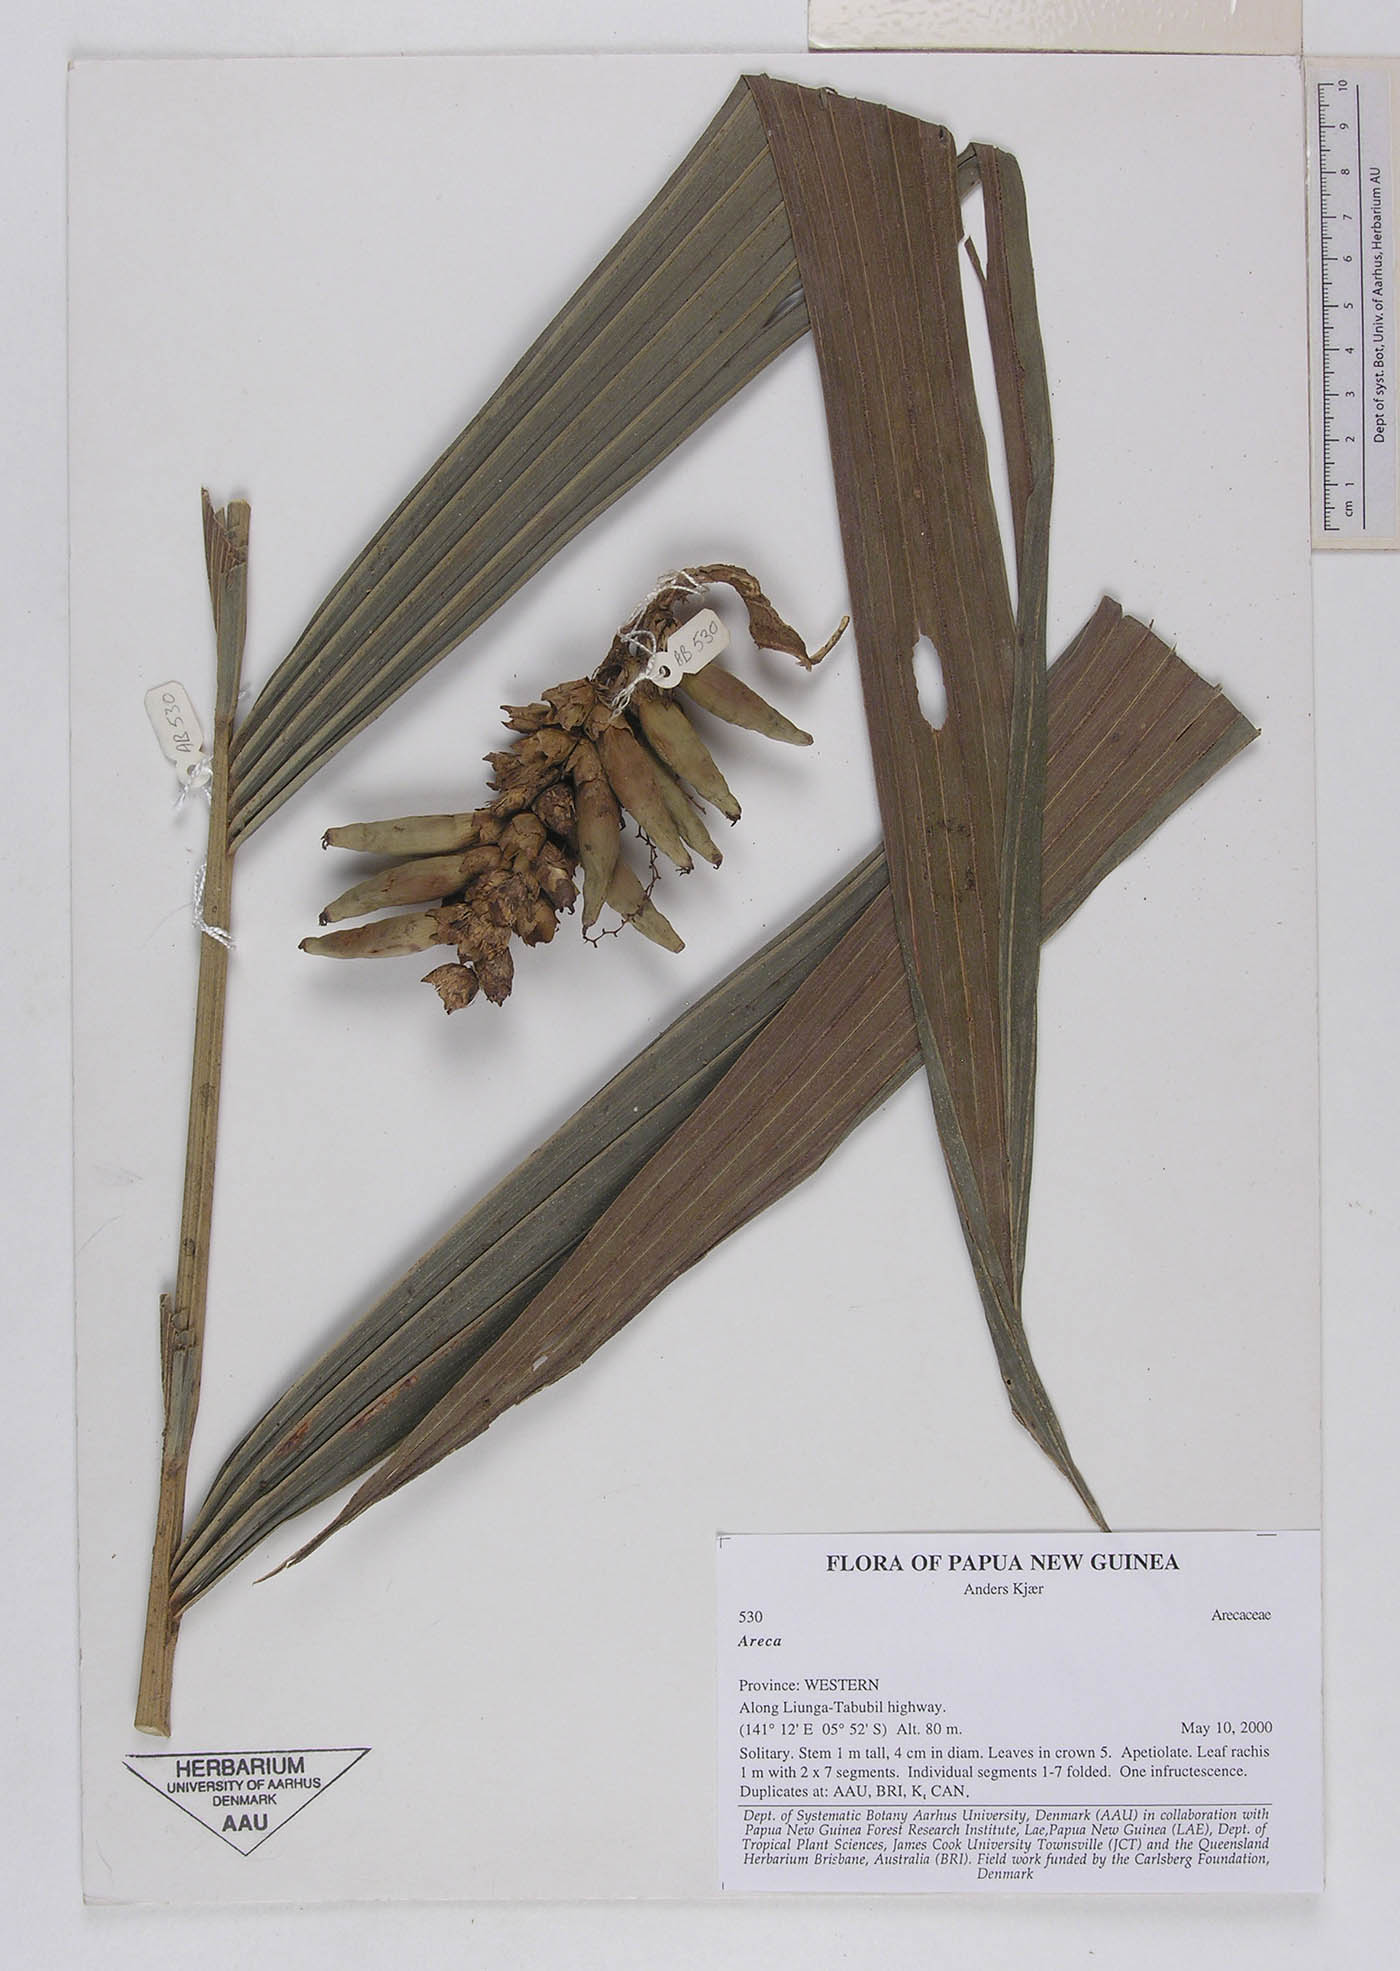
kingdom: Plantae
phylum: Tracheophyta
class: Liliopsida
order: Arecales
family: Arecaceae
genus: Areca
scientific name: Areca
